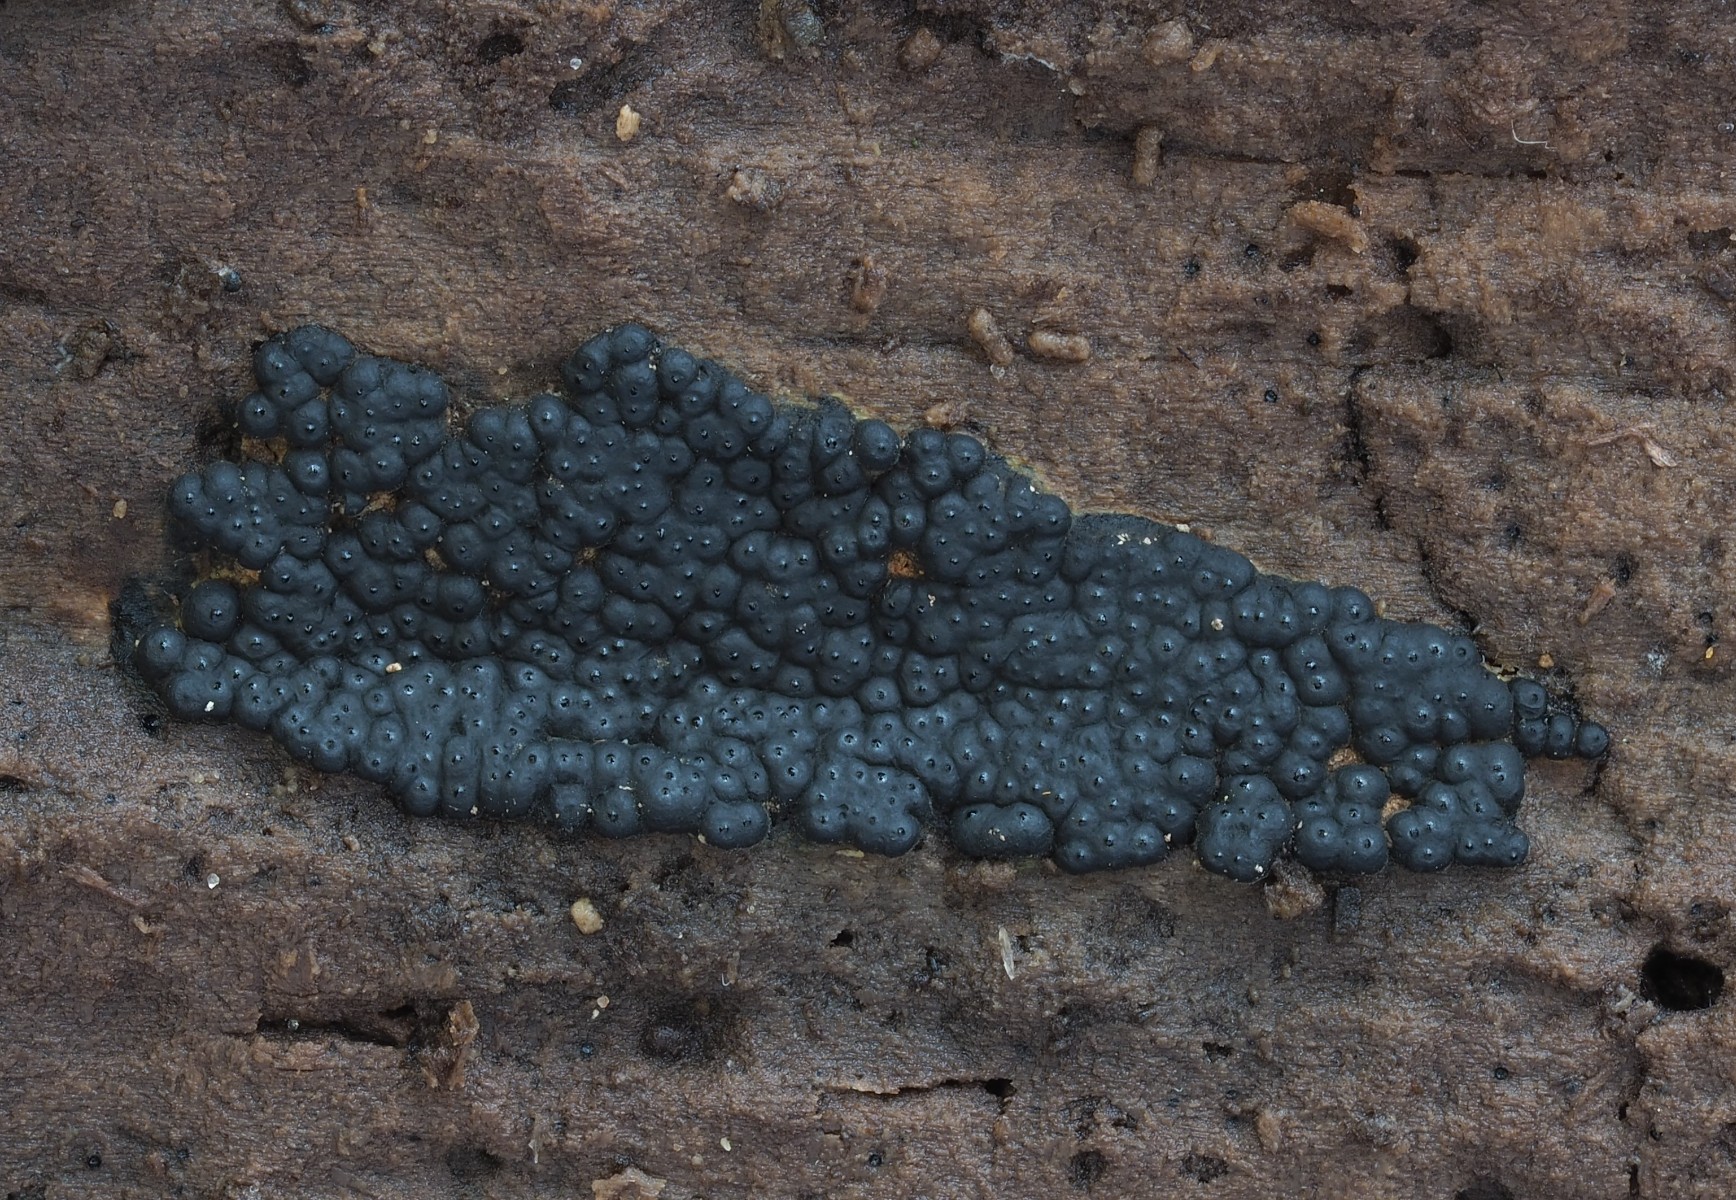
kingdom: Fungi
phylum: Ascomycota
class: Sordariomycetes
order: Xylariales
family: Xylariaceae
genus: Nemania
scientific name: Nemania chestersii
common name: stribesporet kuldyne
